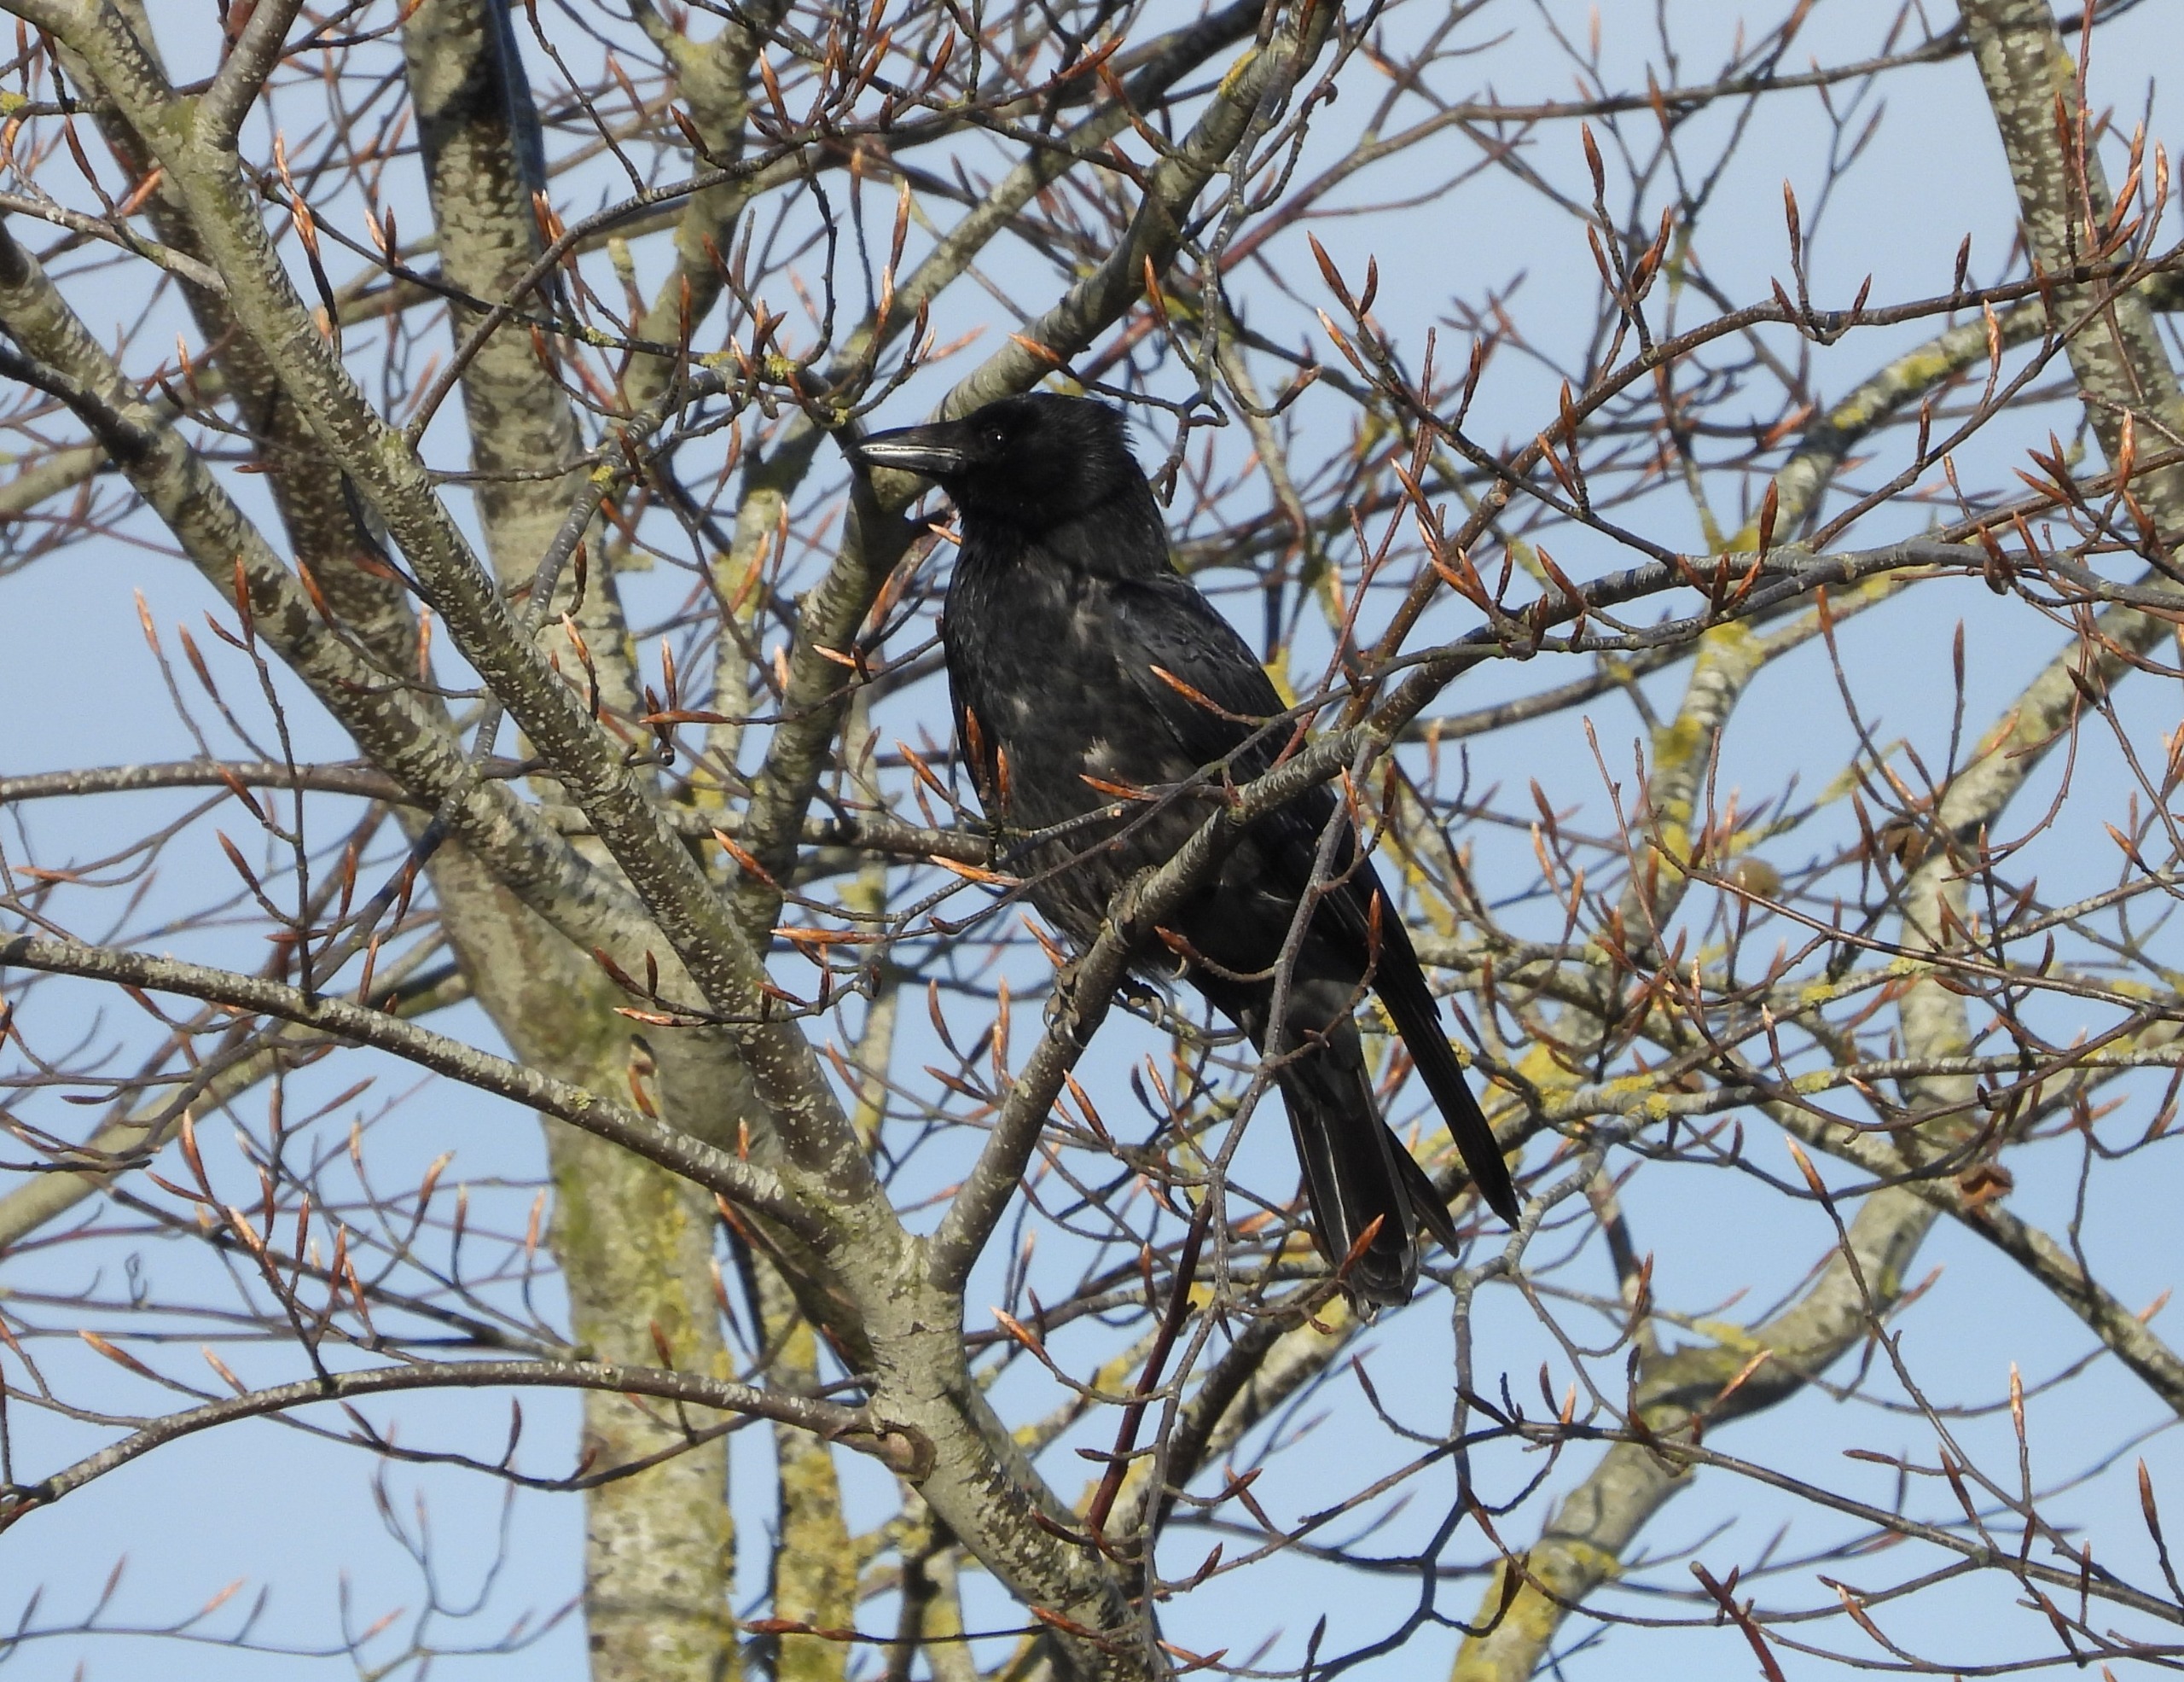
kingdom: Animalia
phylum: Chordata
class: Aves
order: Passeriformes
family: Corvidae
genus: Corvus
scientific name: Corvus
